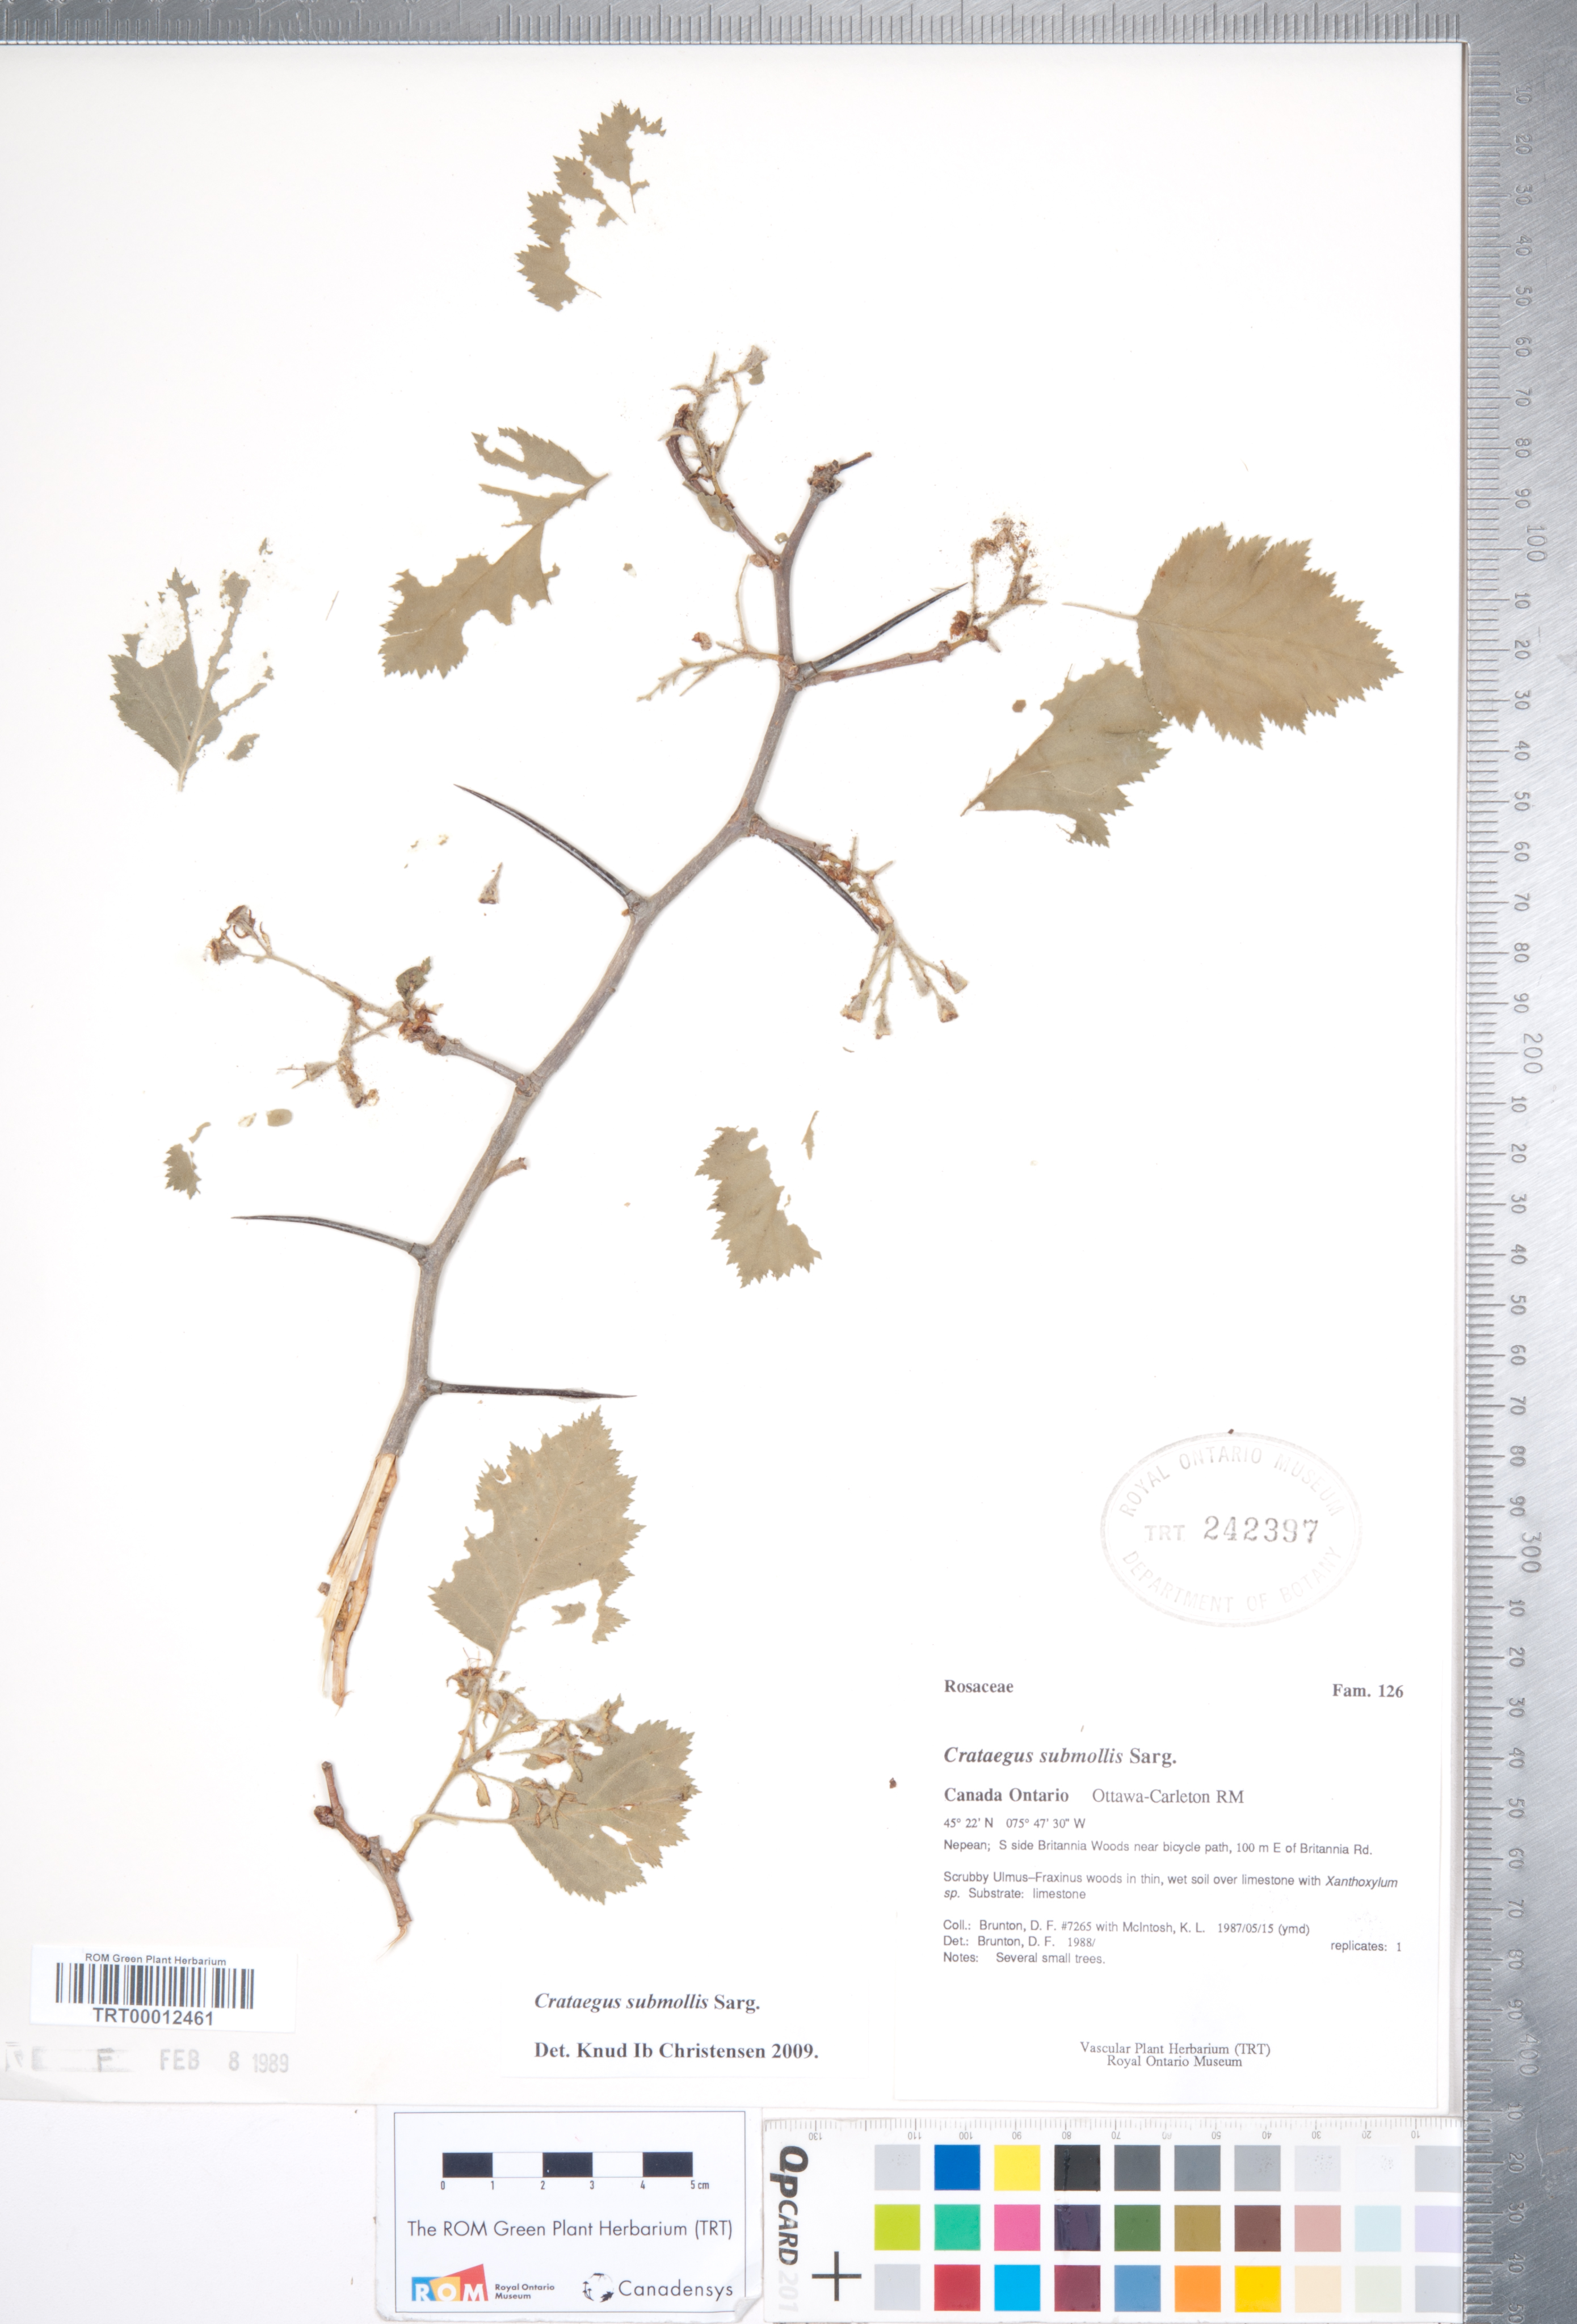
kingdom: Plantae
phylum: Tracheophyta
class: Magnoliopsida
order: Rosales
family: Rosaceae
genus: Crataegus
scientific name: Crataegus submollis
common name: Hairy cockspurthorn
